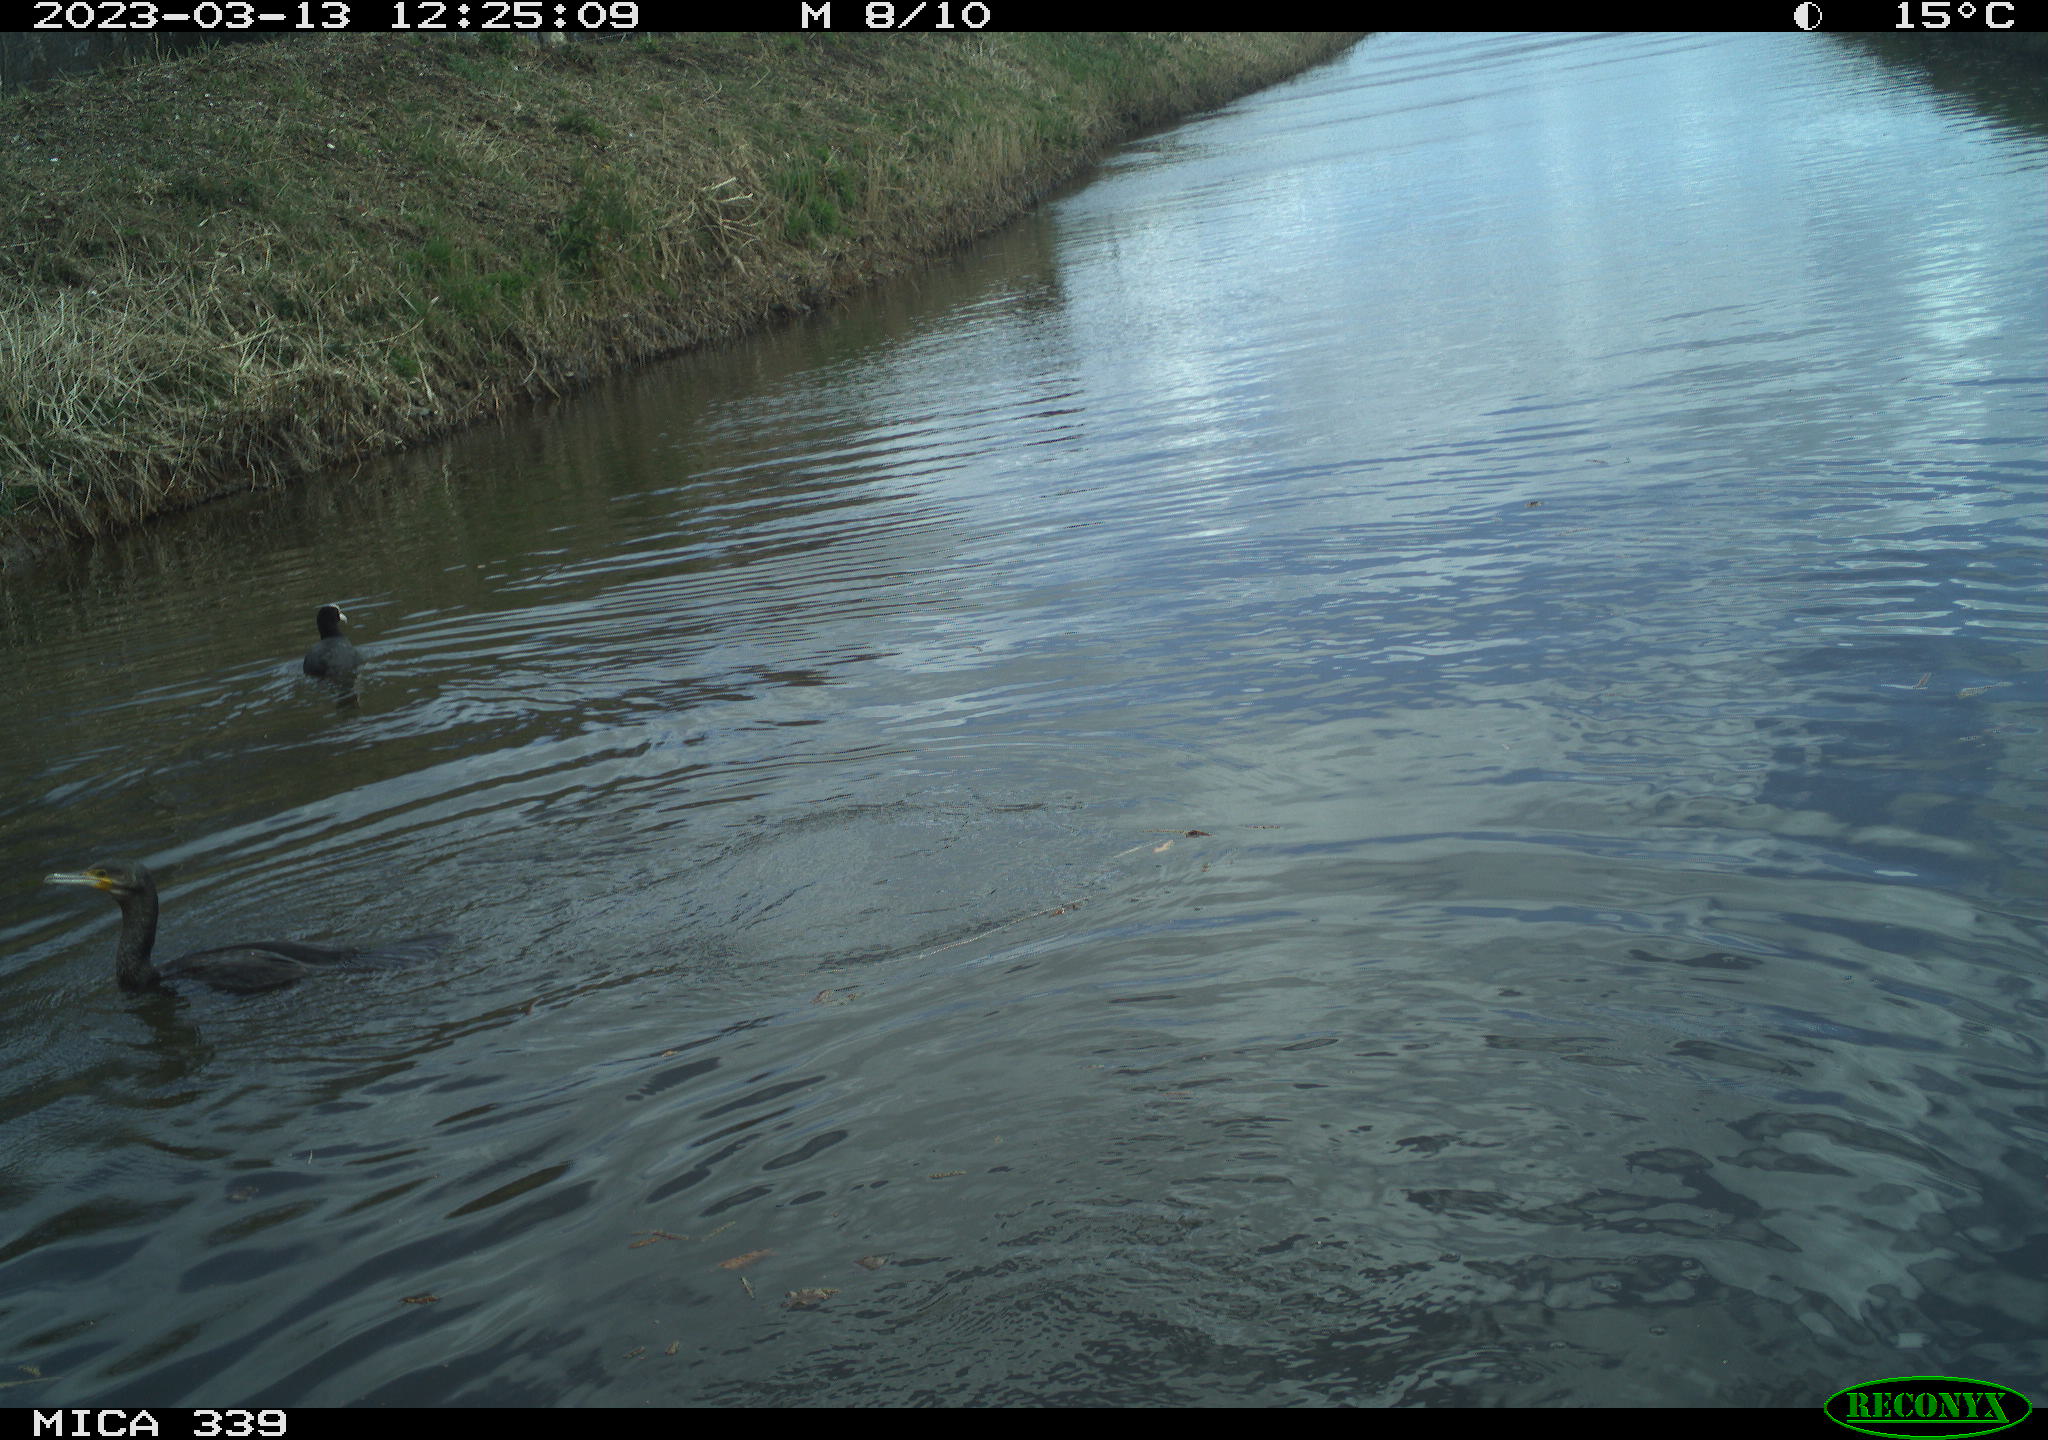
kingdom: Animalia
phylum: Chordata
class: Aves
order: Suliformes
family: Phalacrocoracidae
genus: Phalacrocorax
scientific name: Phalacrocorax carbo
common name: Great cormorant
